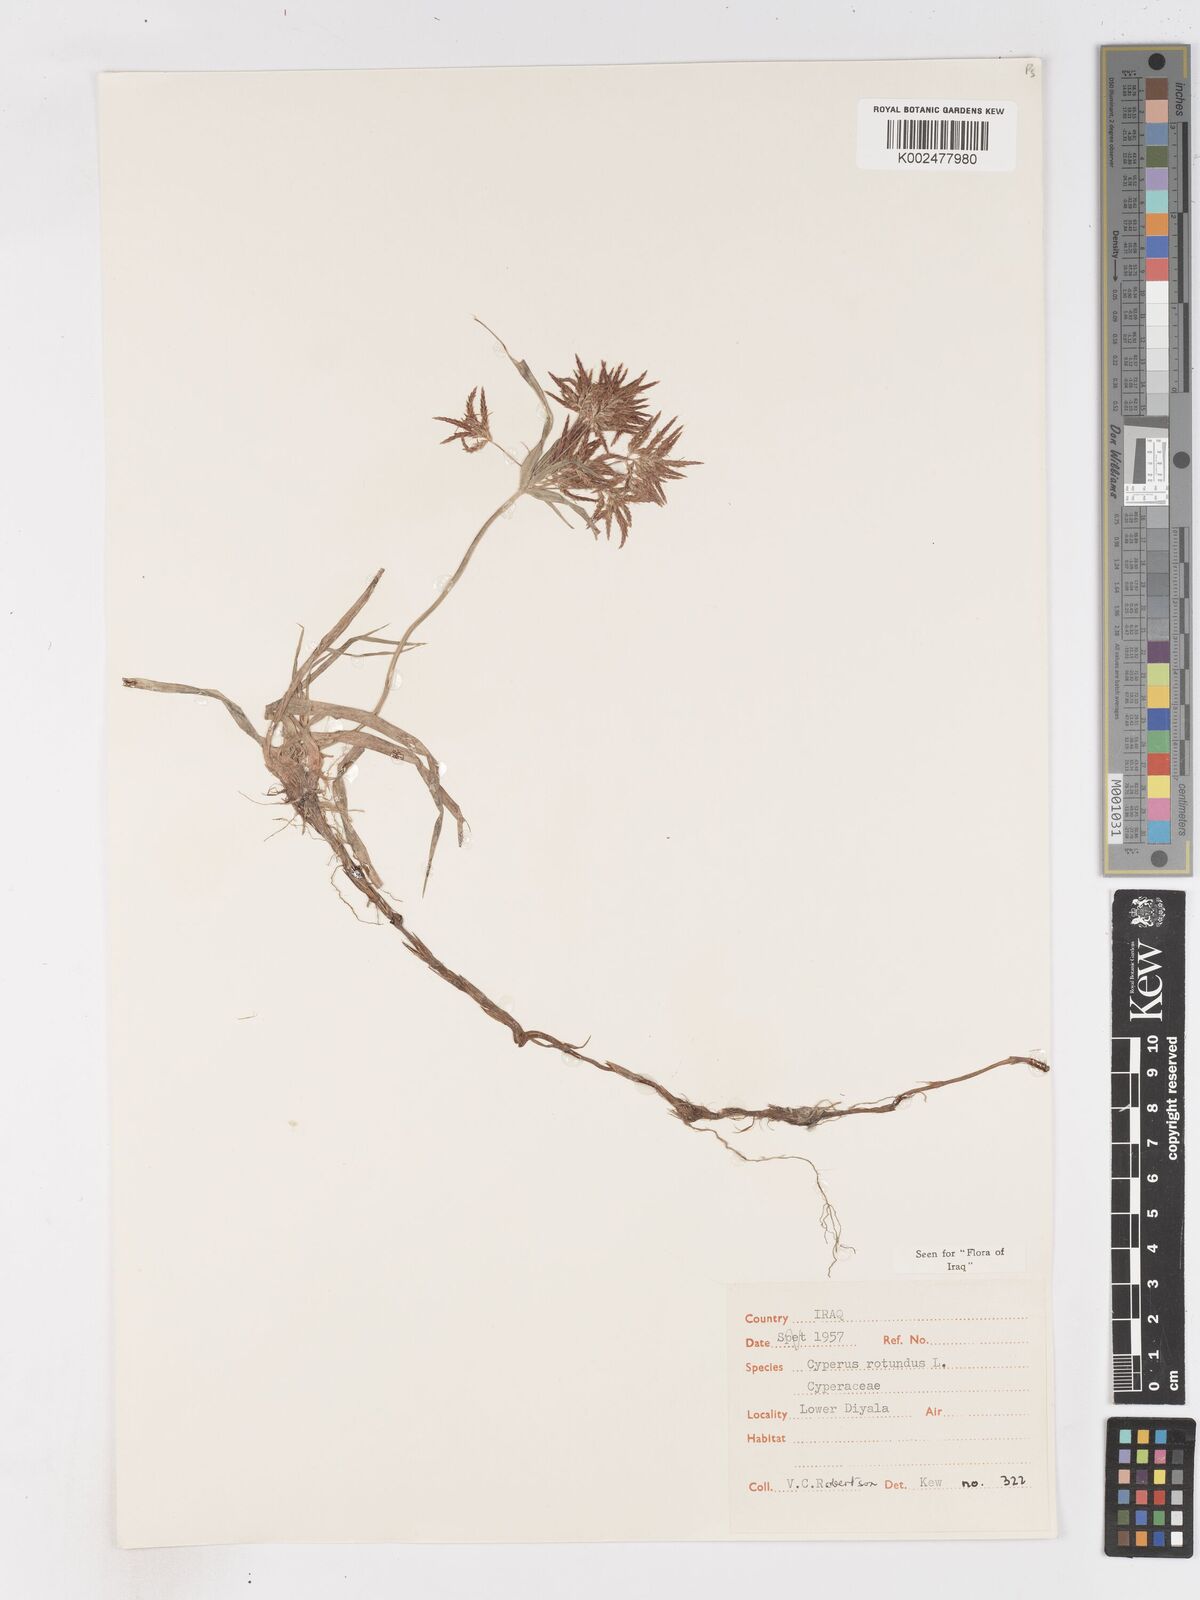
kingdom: Plantae
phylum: Tracheophyta
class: Liliopsida
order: Poales
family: Cyperaceae
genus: Cyperus
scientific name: Cyperus rotundus
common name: Nutgrass
